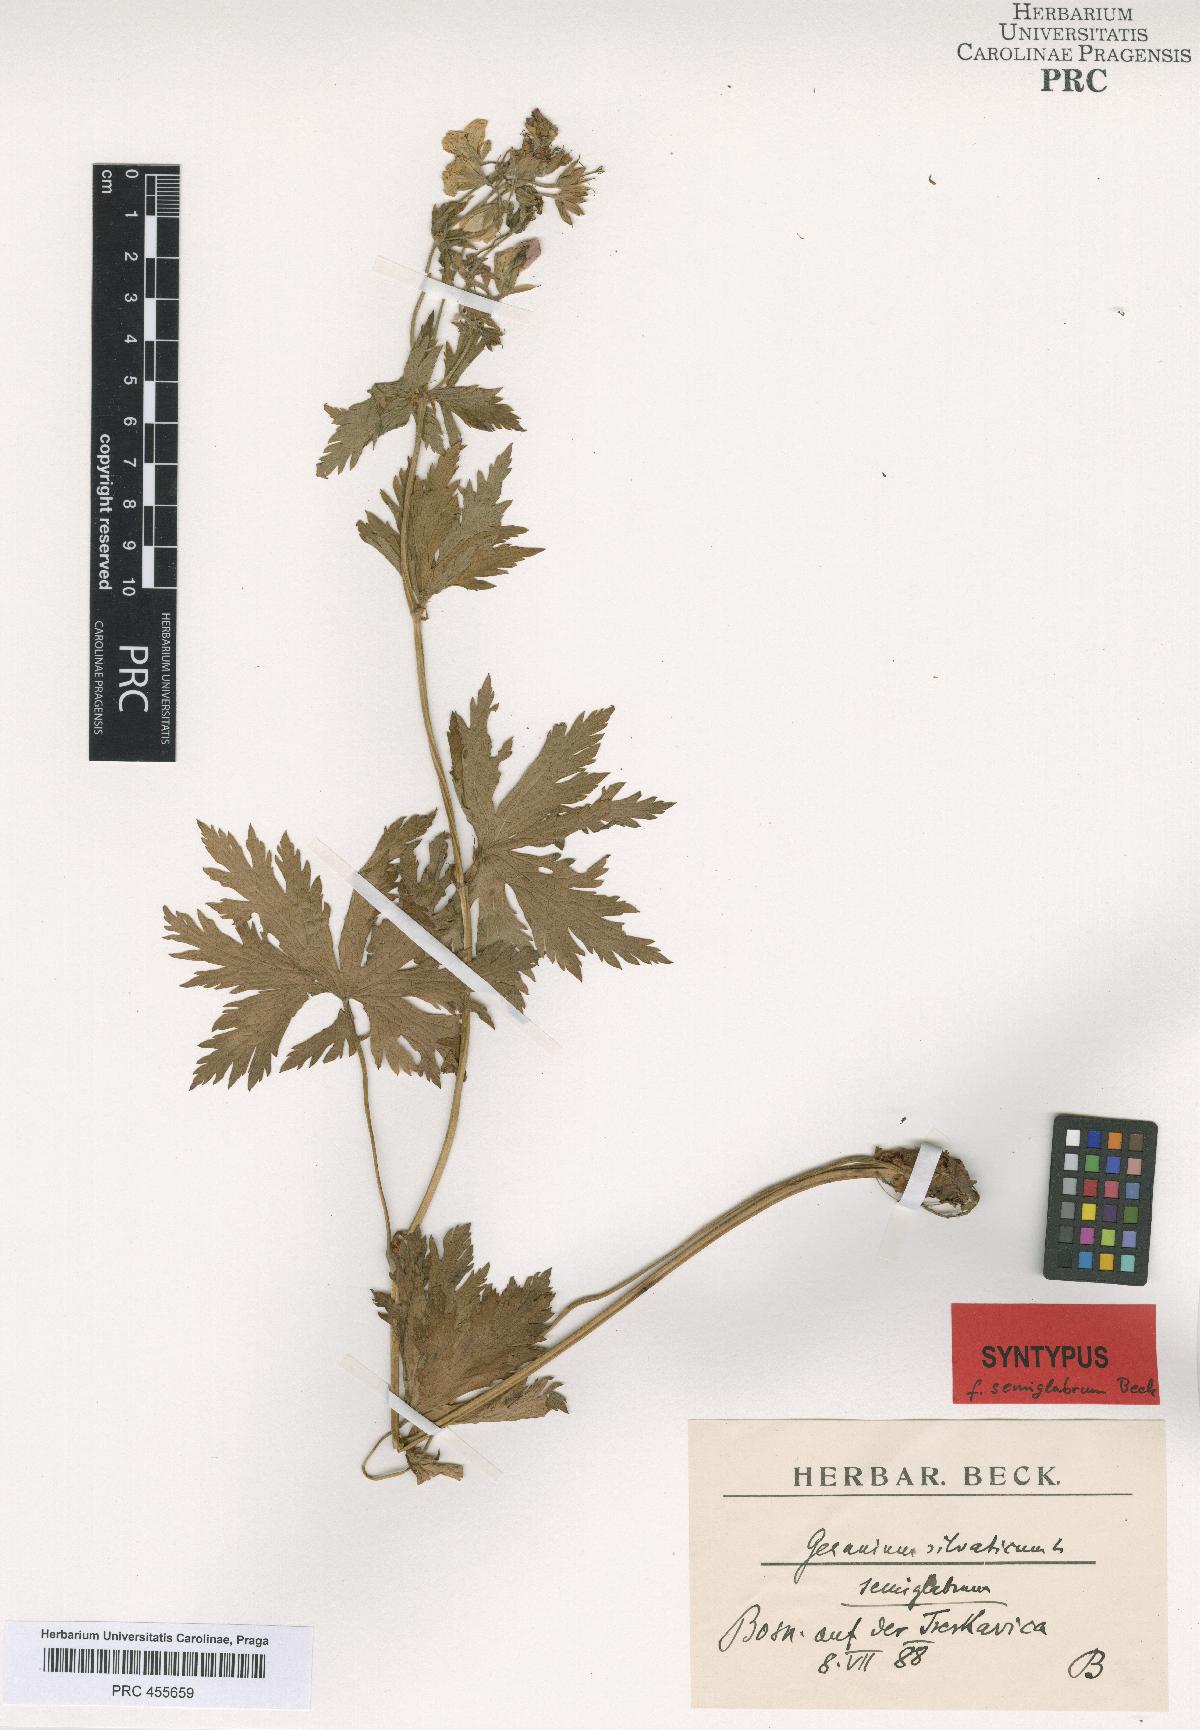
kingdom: Plantae
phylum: Tracheophyta
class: Magnoliopsida
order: Geraniales
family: Geraniaceae
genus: Geranium
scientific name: Geranium sylvaticum
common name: Wood crane's-bill
